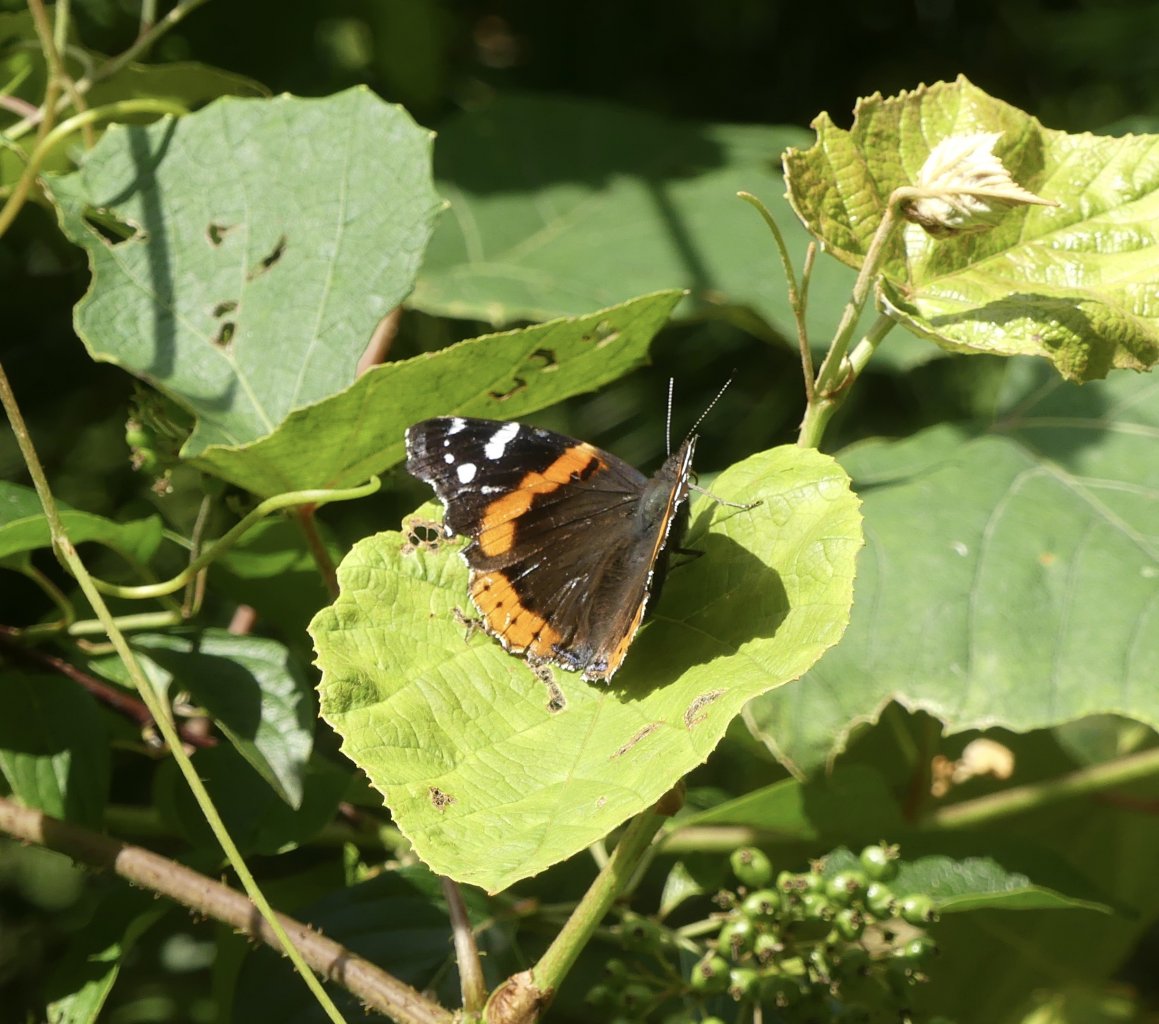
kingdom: Animalia
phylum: Arthropoda
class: Insecta
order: Lepidoptera
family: Nymphalidae
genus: Vanessa
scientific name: Vanessa atalanta
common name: Red Admiral
